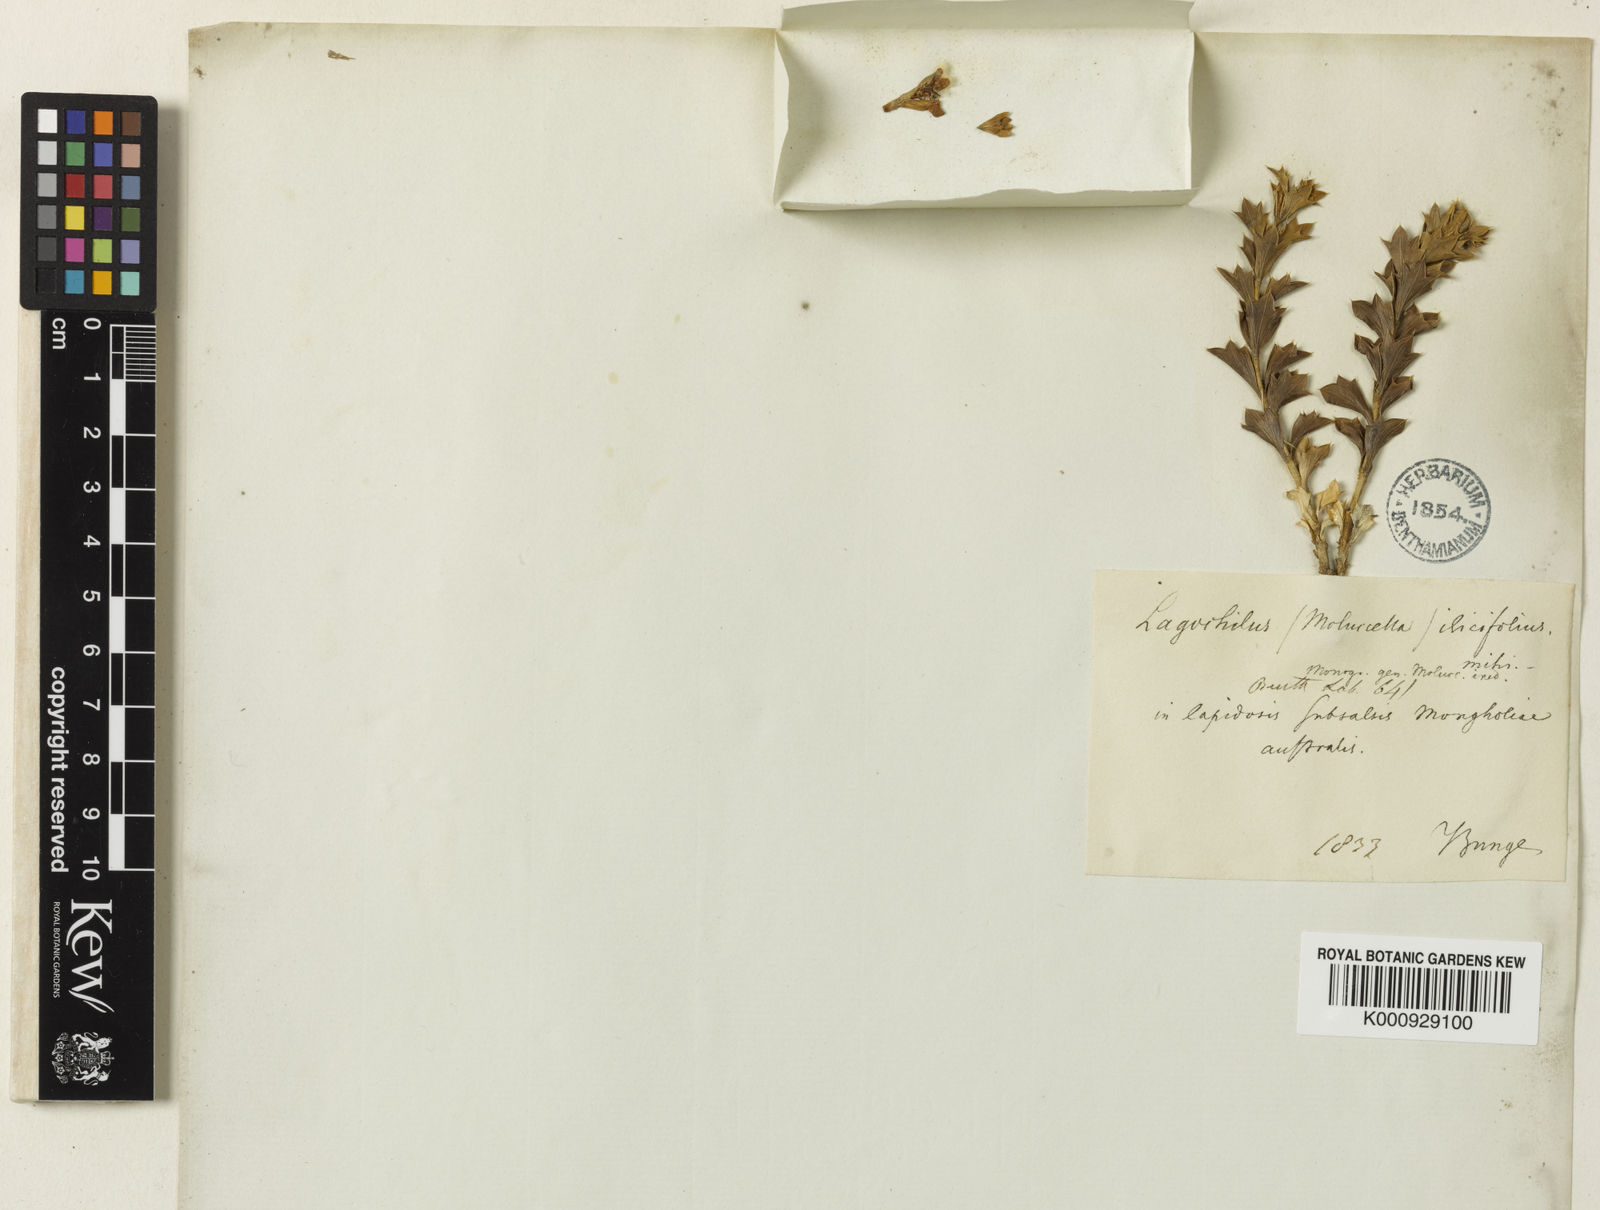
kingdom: Plantae
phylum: Tracheophyta
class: Magnoliopsida
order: Lamiales
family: Lamiaceae
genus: Lagochilus
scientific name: Lagochilus ilicifolius
